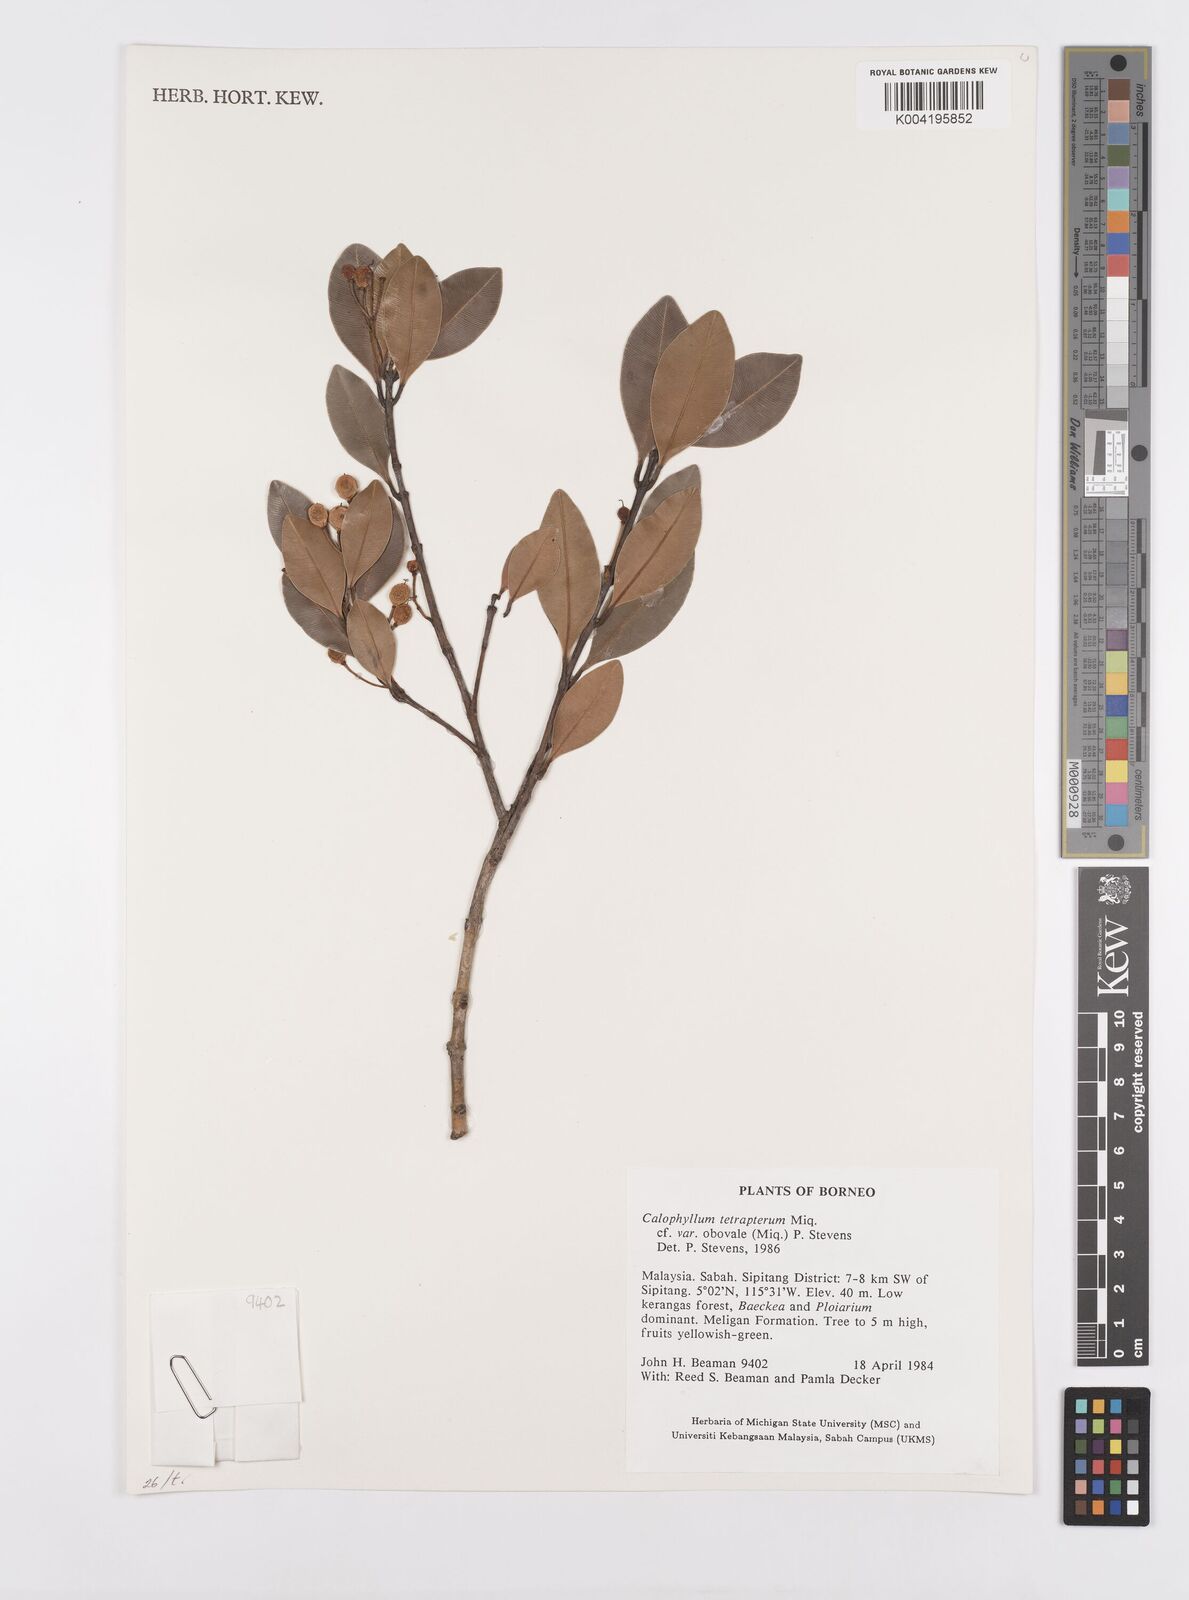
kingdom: Plantae
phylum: Tracheophyta
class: Magnoliopsida
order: Malpighiales
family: Calophyllaceae
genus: Calophyllum
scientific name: Calophyllum tetrapterum
